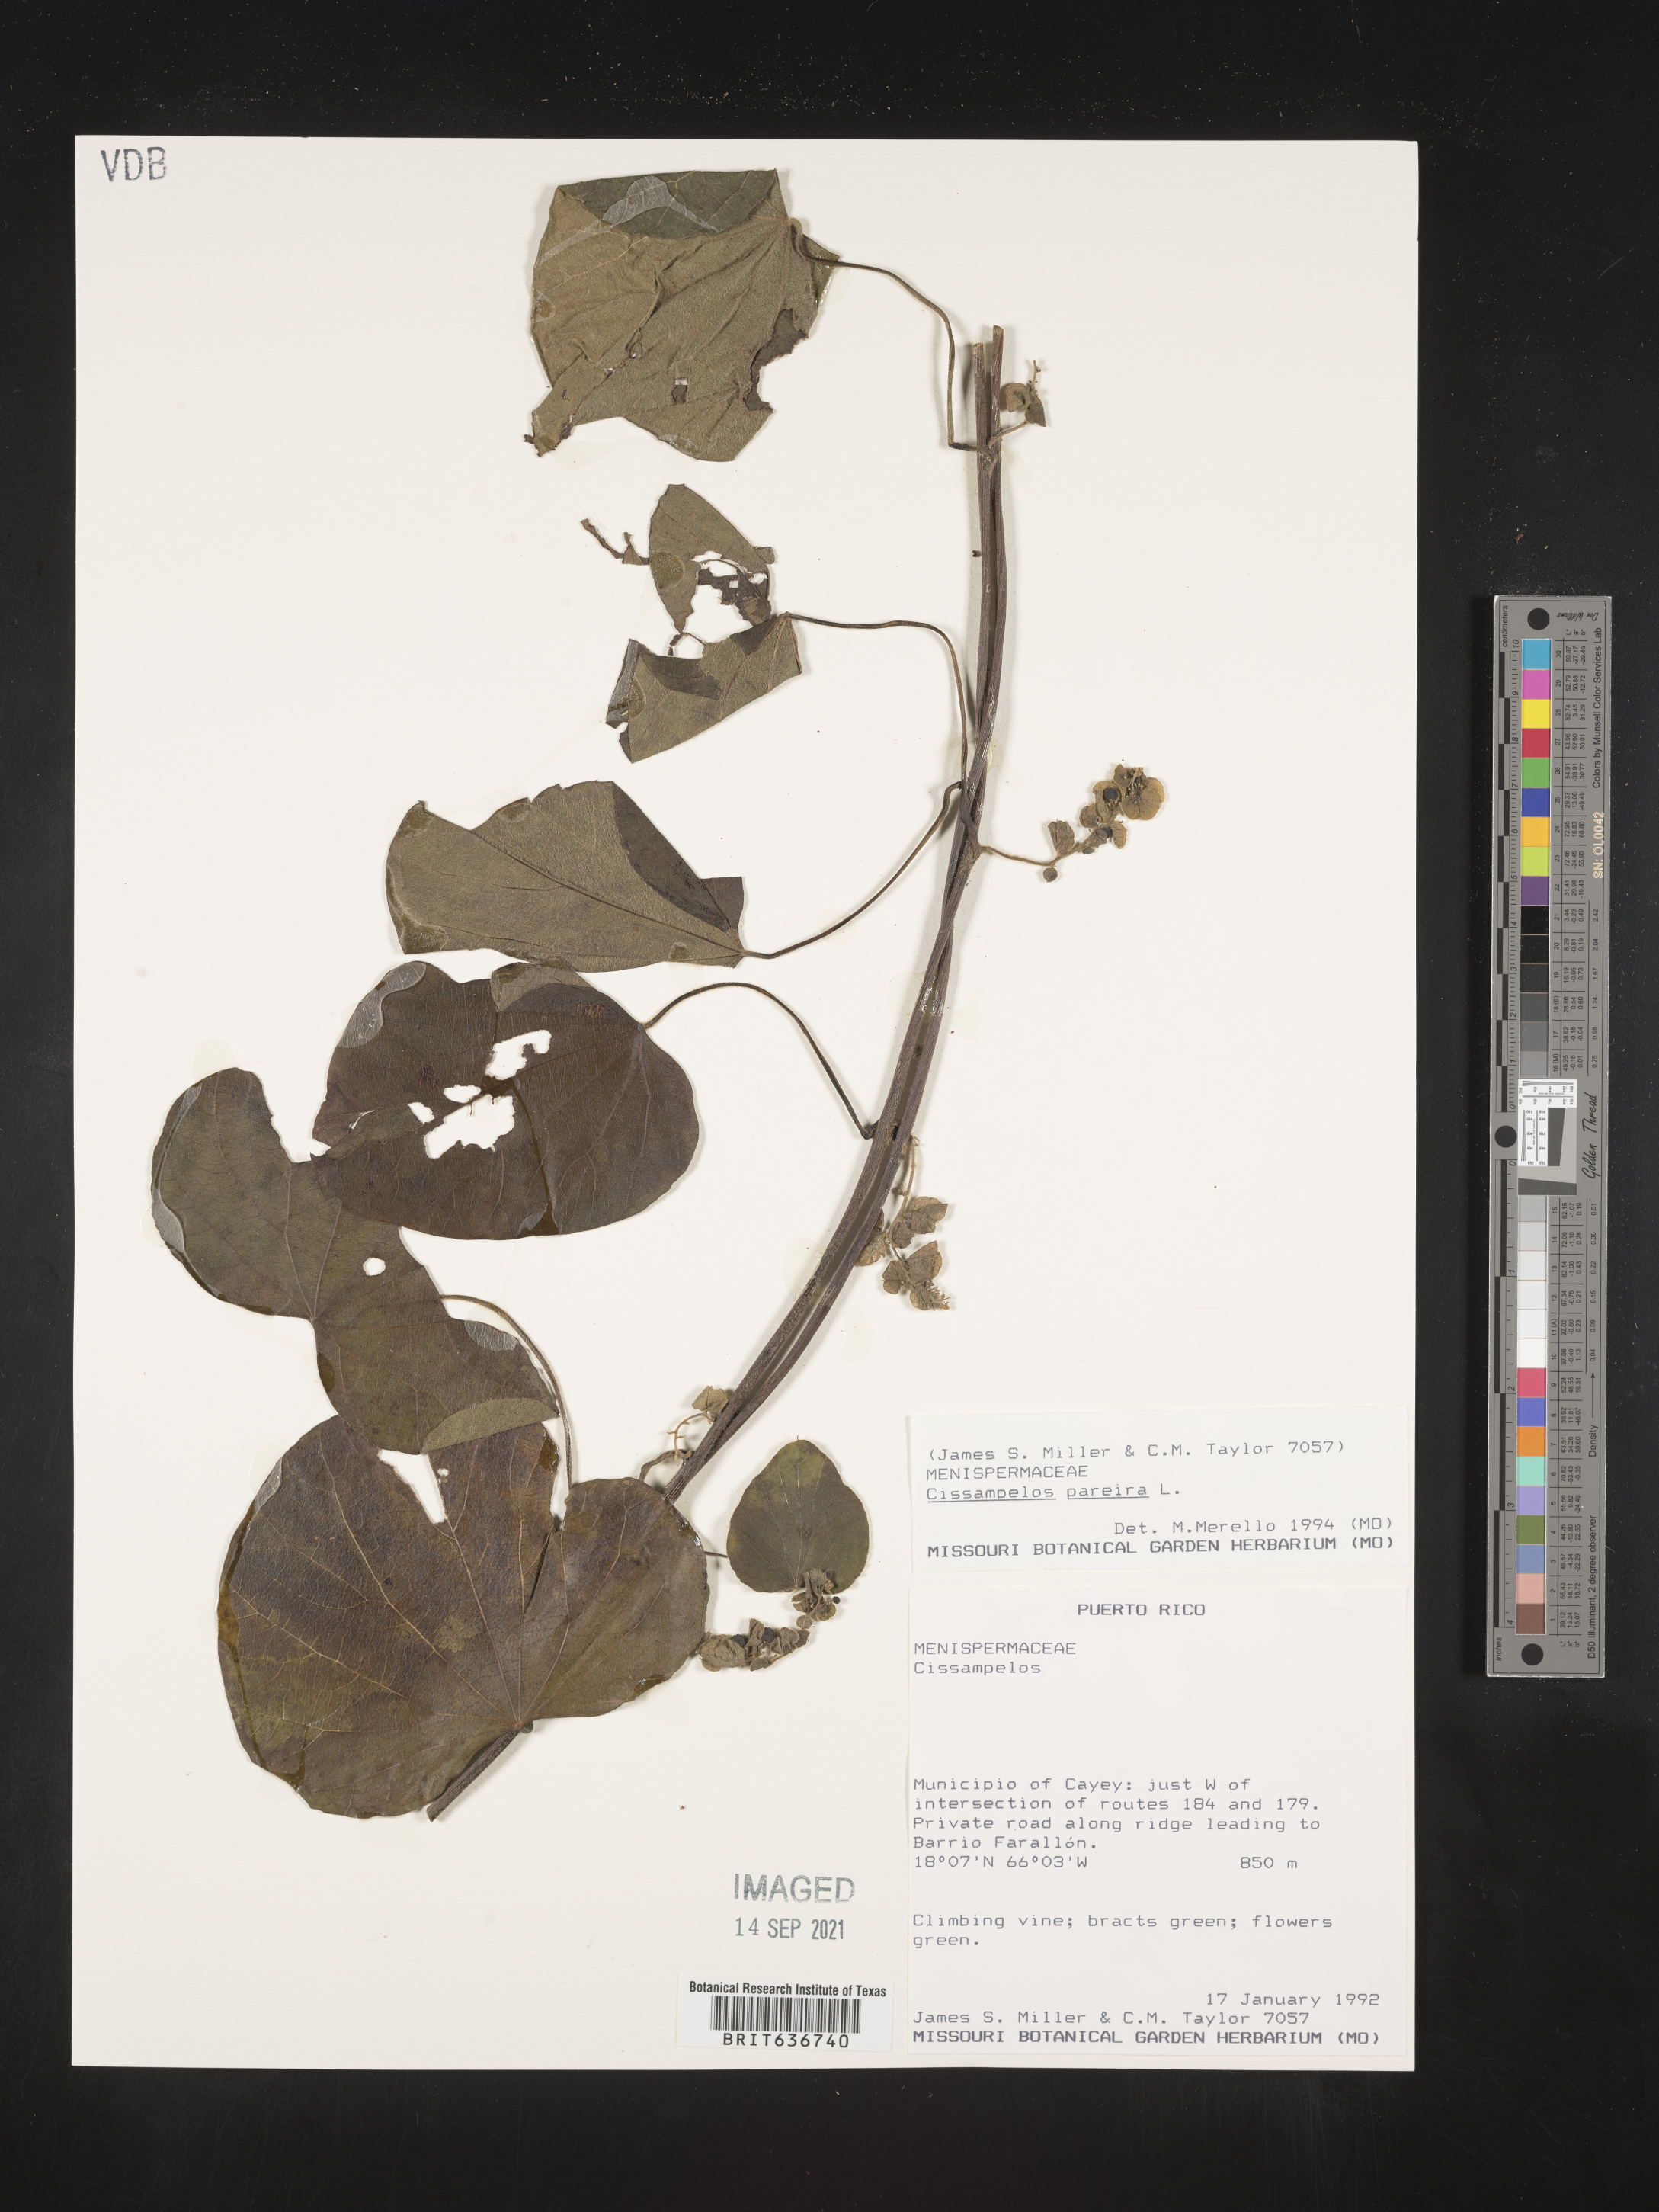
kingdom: Plantae
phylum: Tracheophyta
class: Magnoliopsida
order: Ranunculales
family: Menispermaceae
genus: Cissampelos
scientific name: Cissampelos
